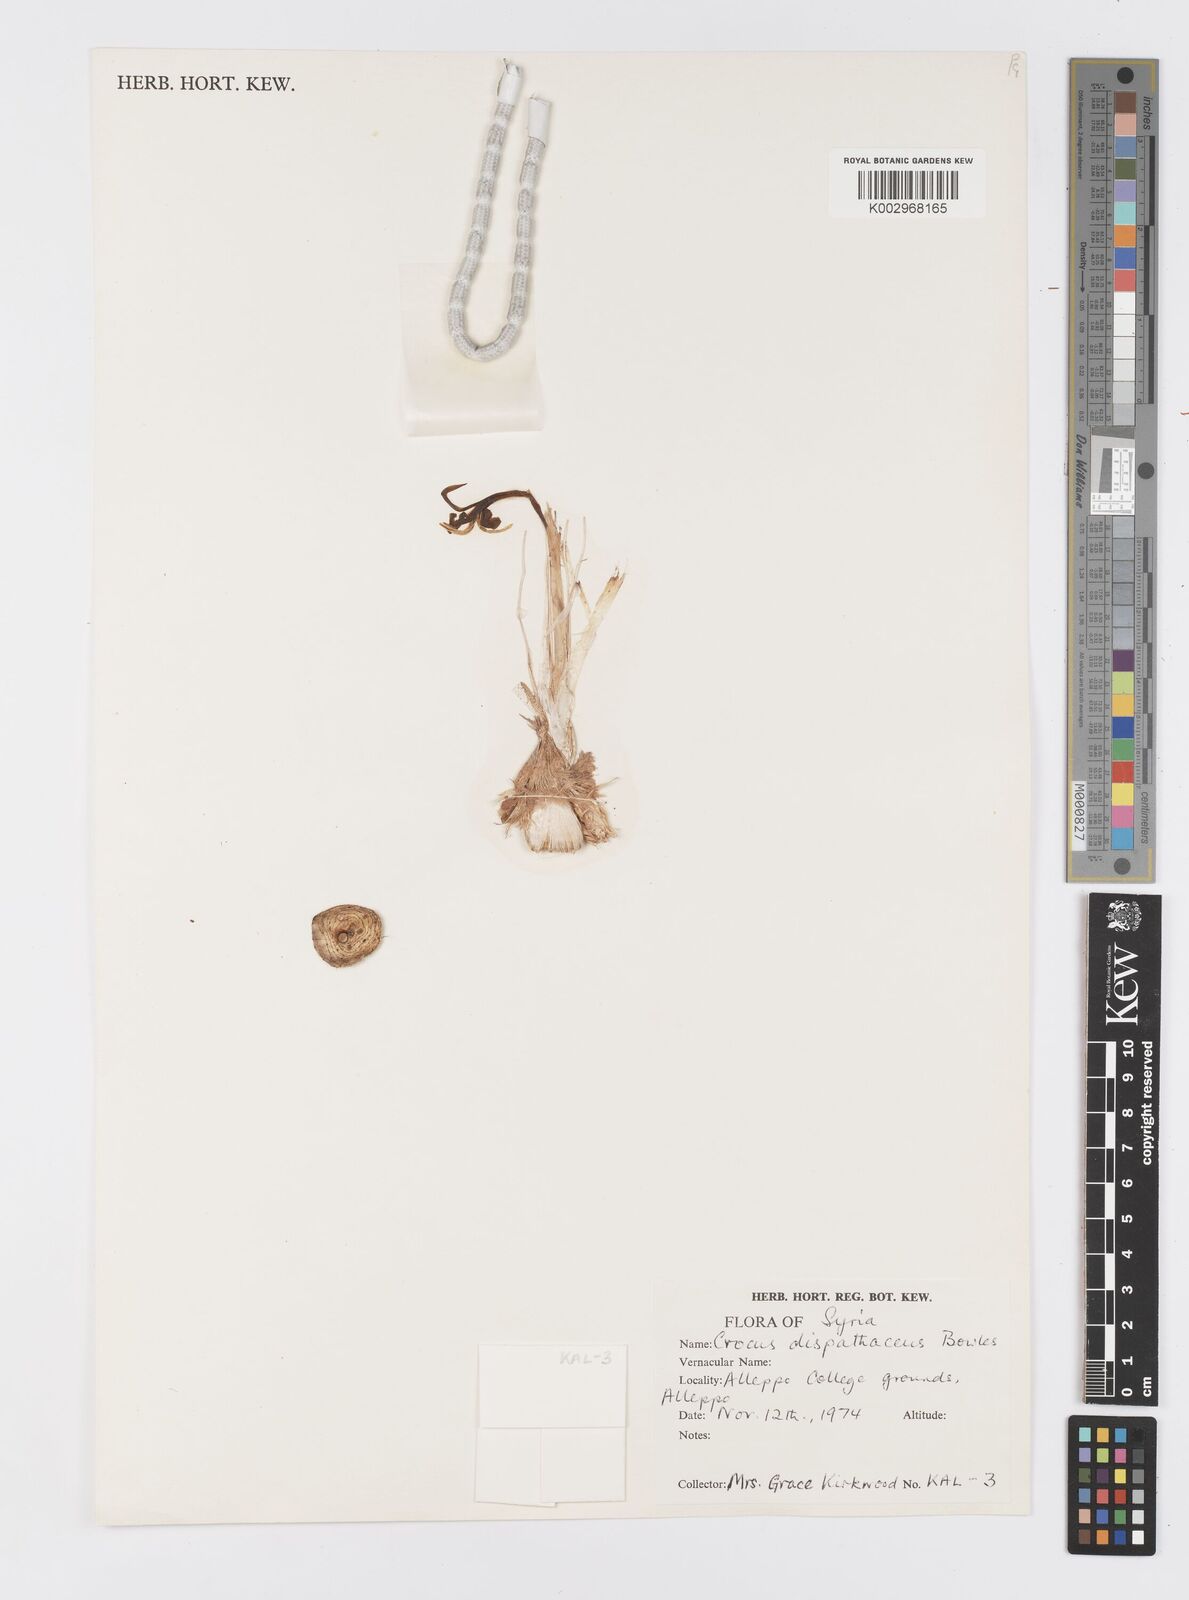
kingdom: Plantae
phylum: Tracheophyta
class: Liliopsida
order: Asparagales
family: Iridaceae
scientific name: Iridaceae
